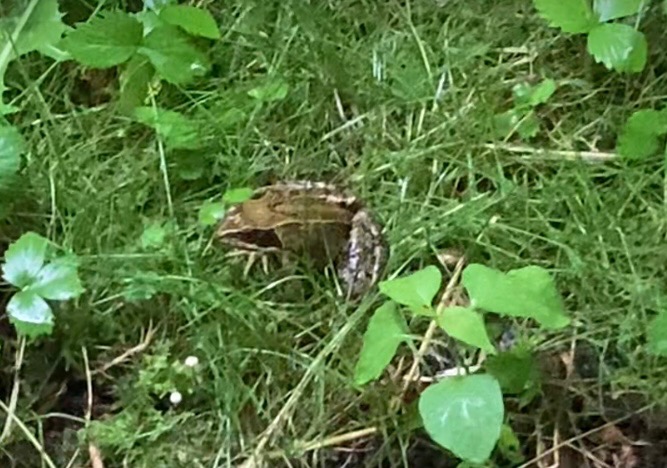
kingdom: Animalia
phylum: Chordata
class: Amphibia
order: Anura
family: Ranidae
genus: Rana
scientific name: Rana temporaria
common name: Butsnudet frø
